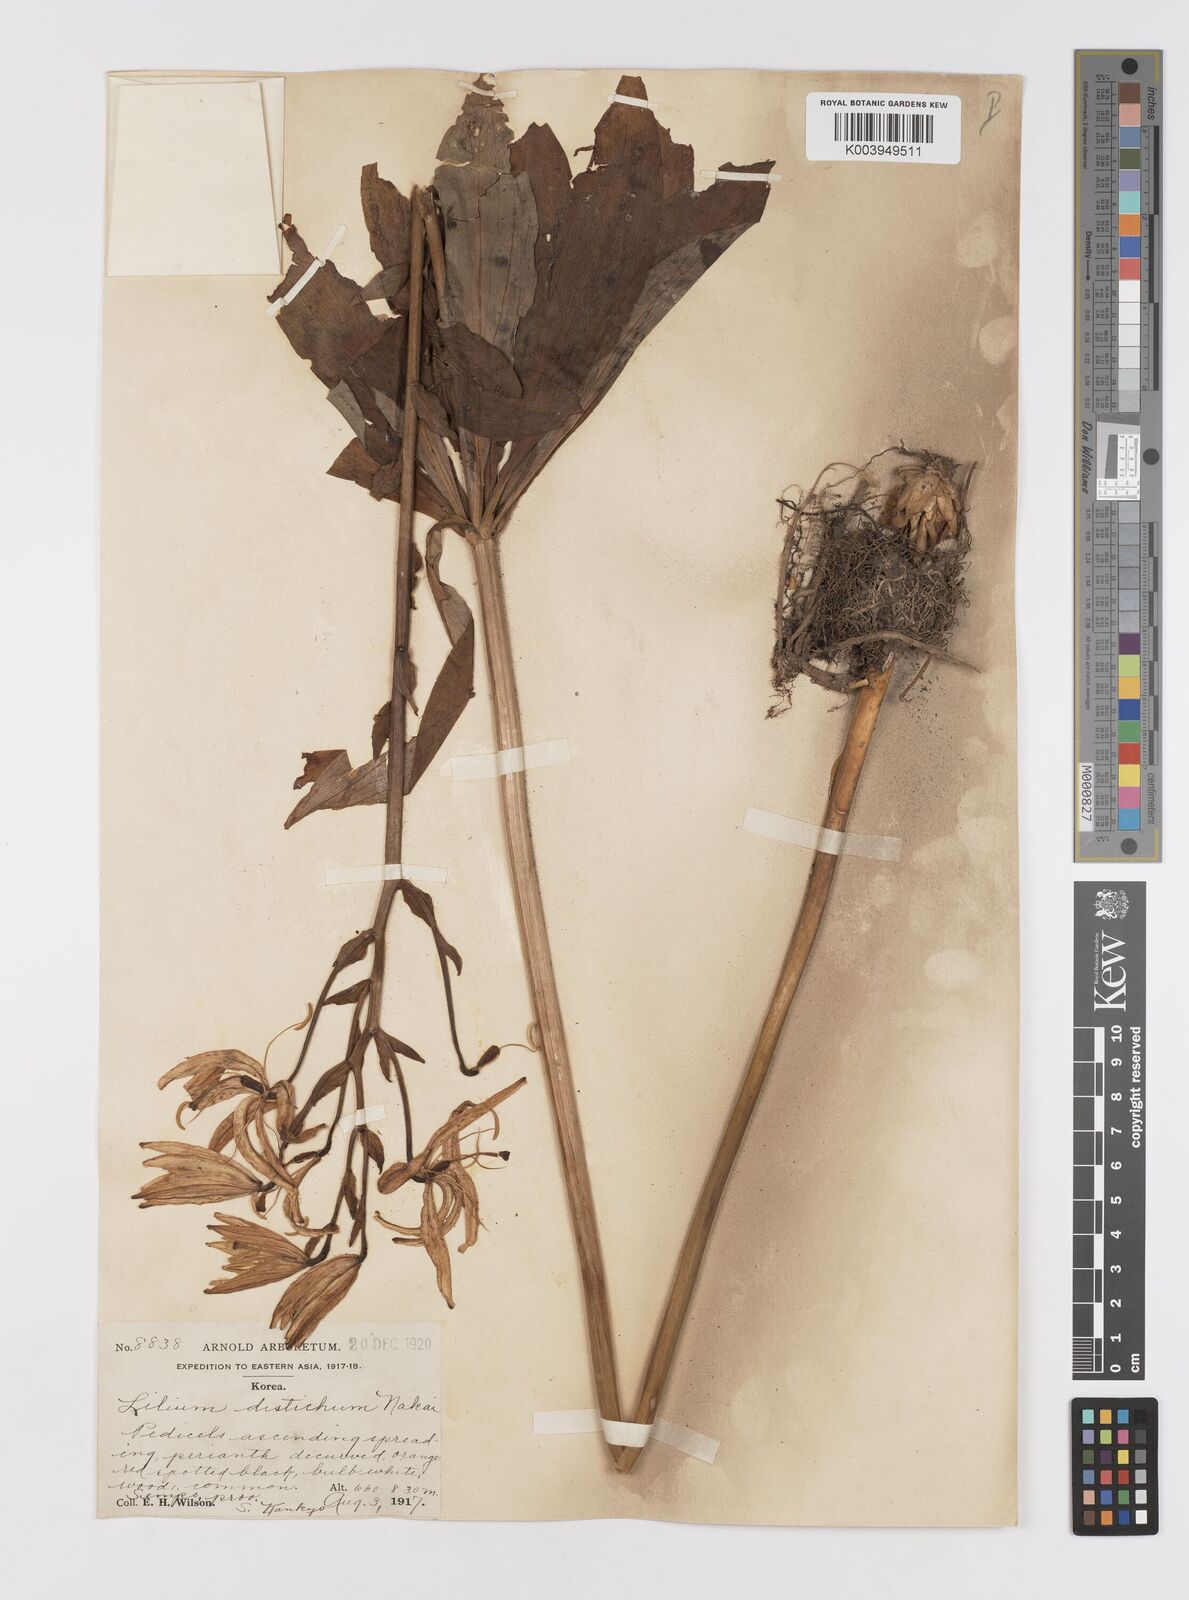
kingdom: Plantae
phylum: Tracheophyta
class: Liliopsida
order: Liliales
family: Liliaceae
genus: Lilium
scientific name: Lilium distichum
